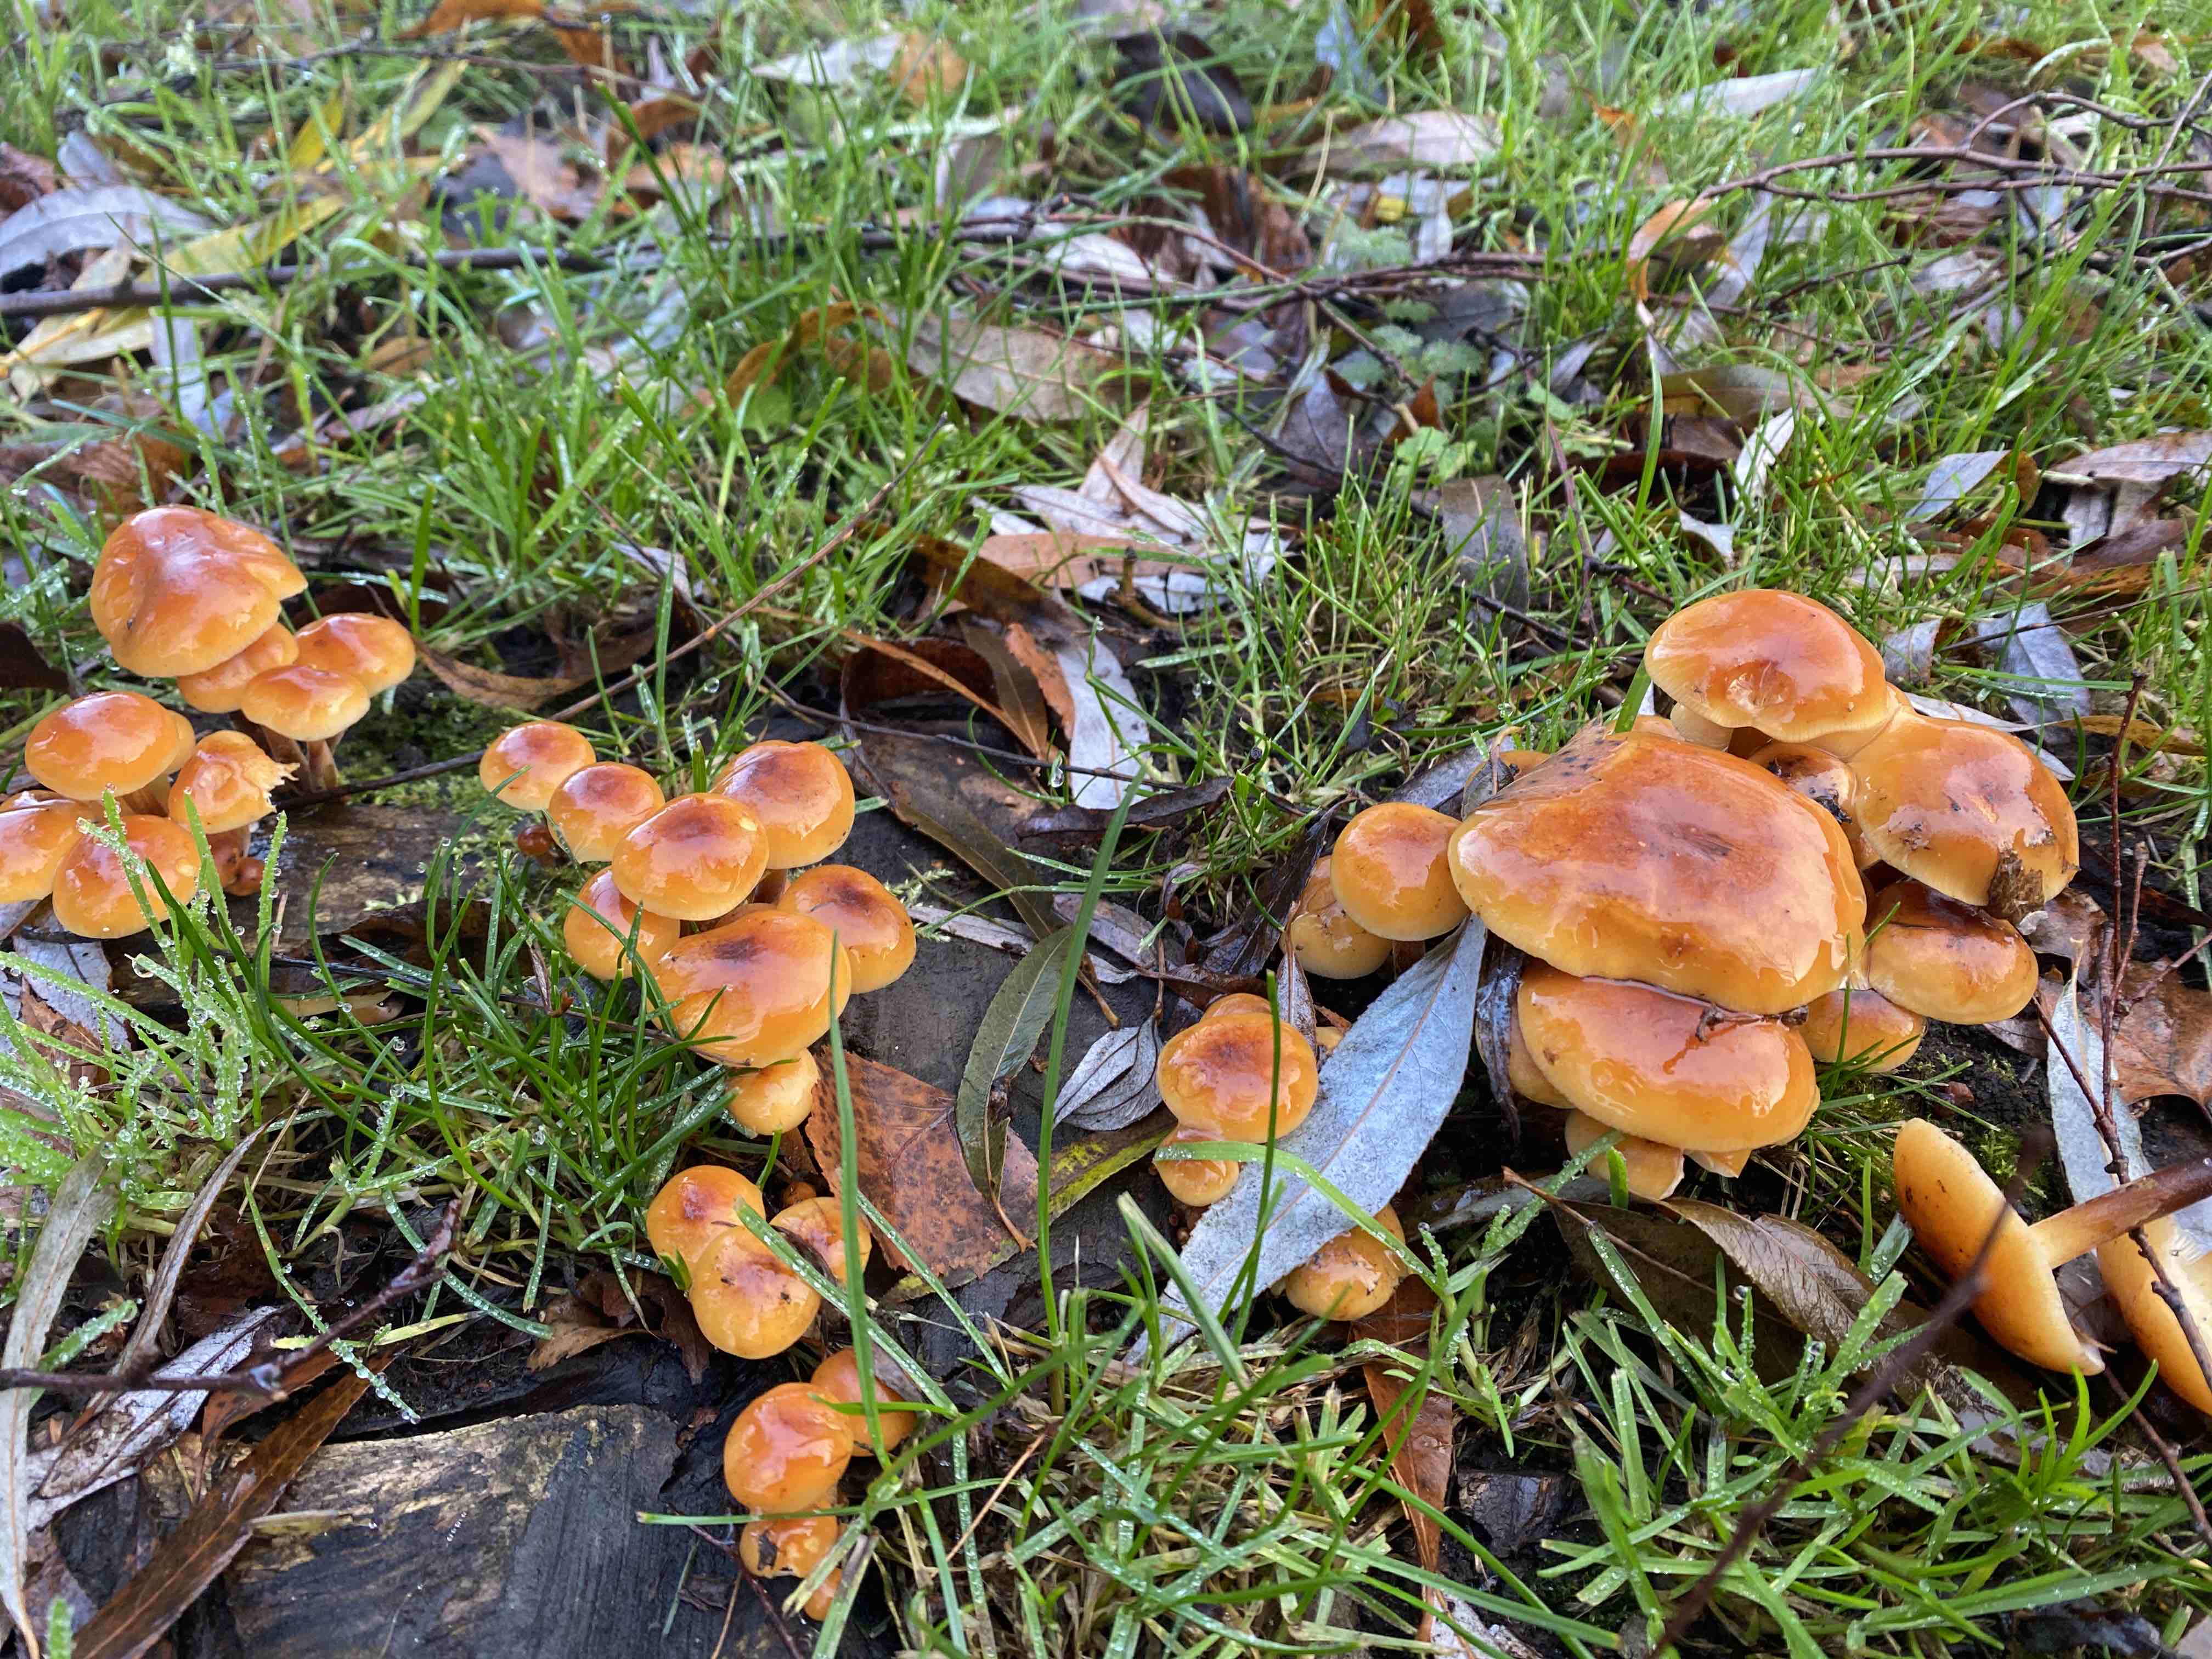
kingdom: Fungi
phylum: Basidiomycota
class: Agaricomycetes
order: Agaricales
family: Physalacriaceae
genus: Flammulina
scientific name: Flammulina
